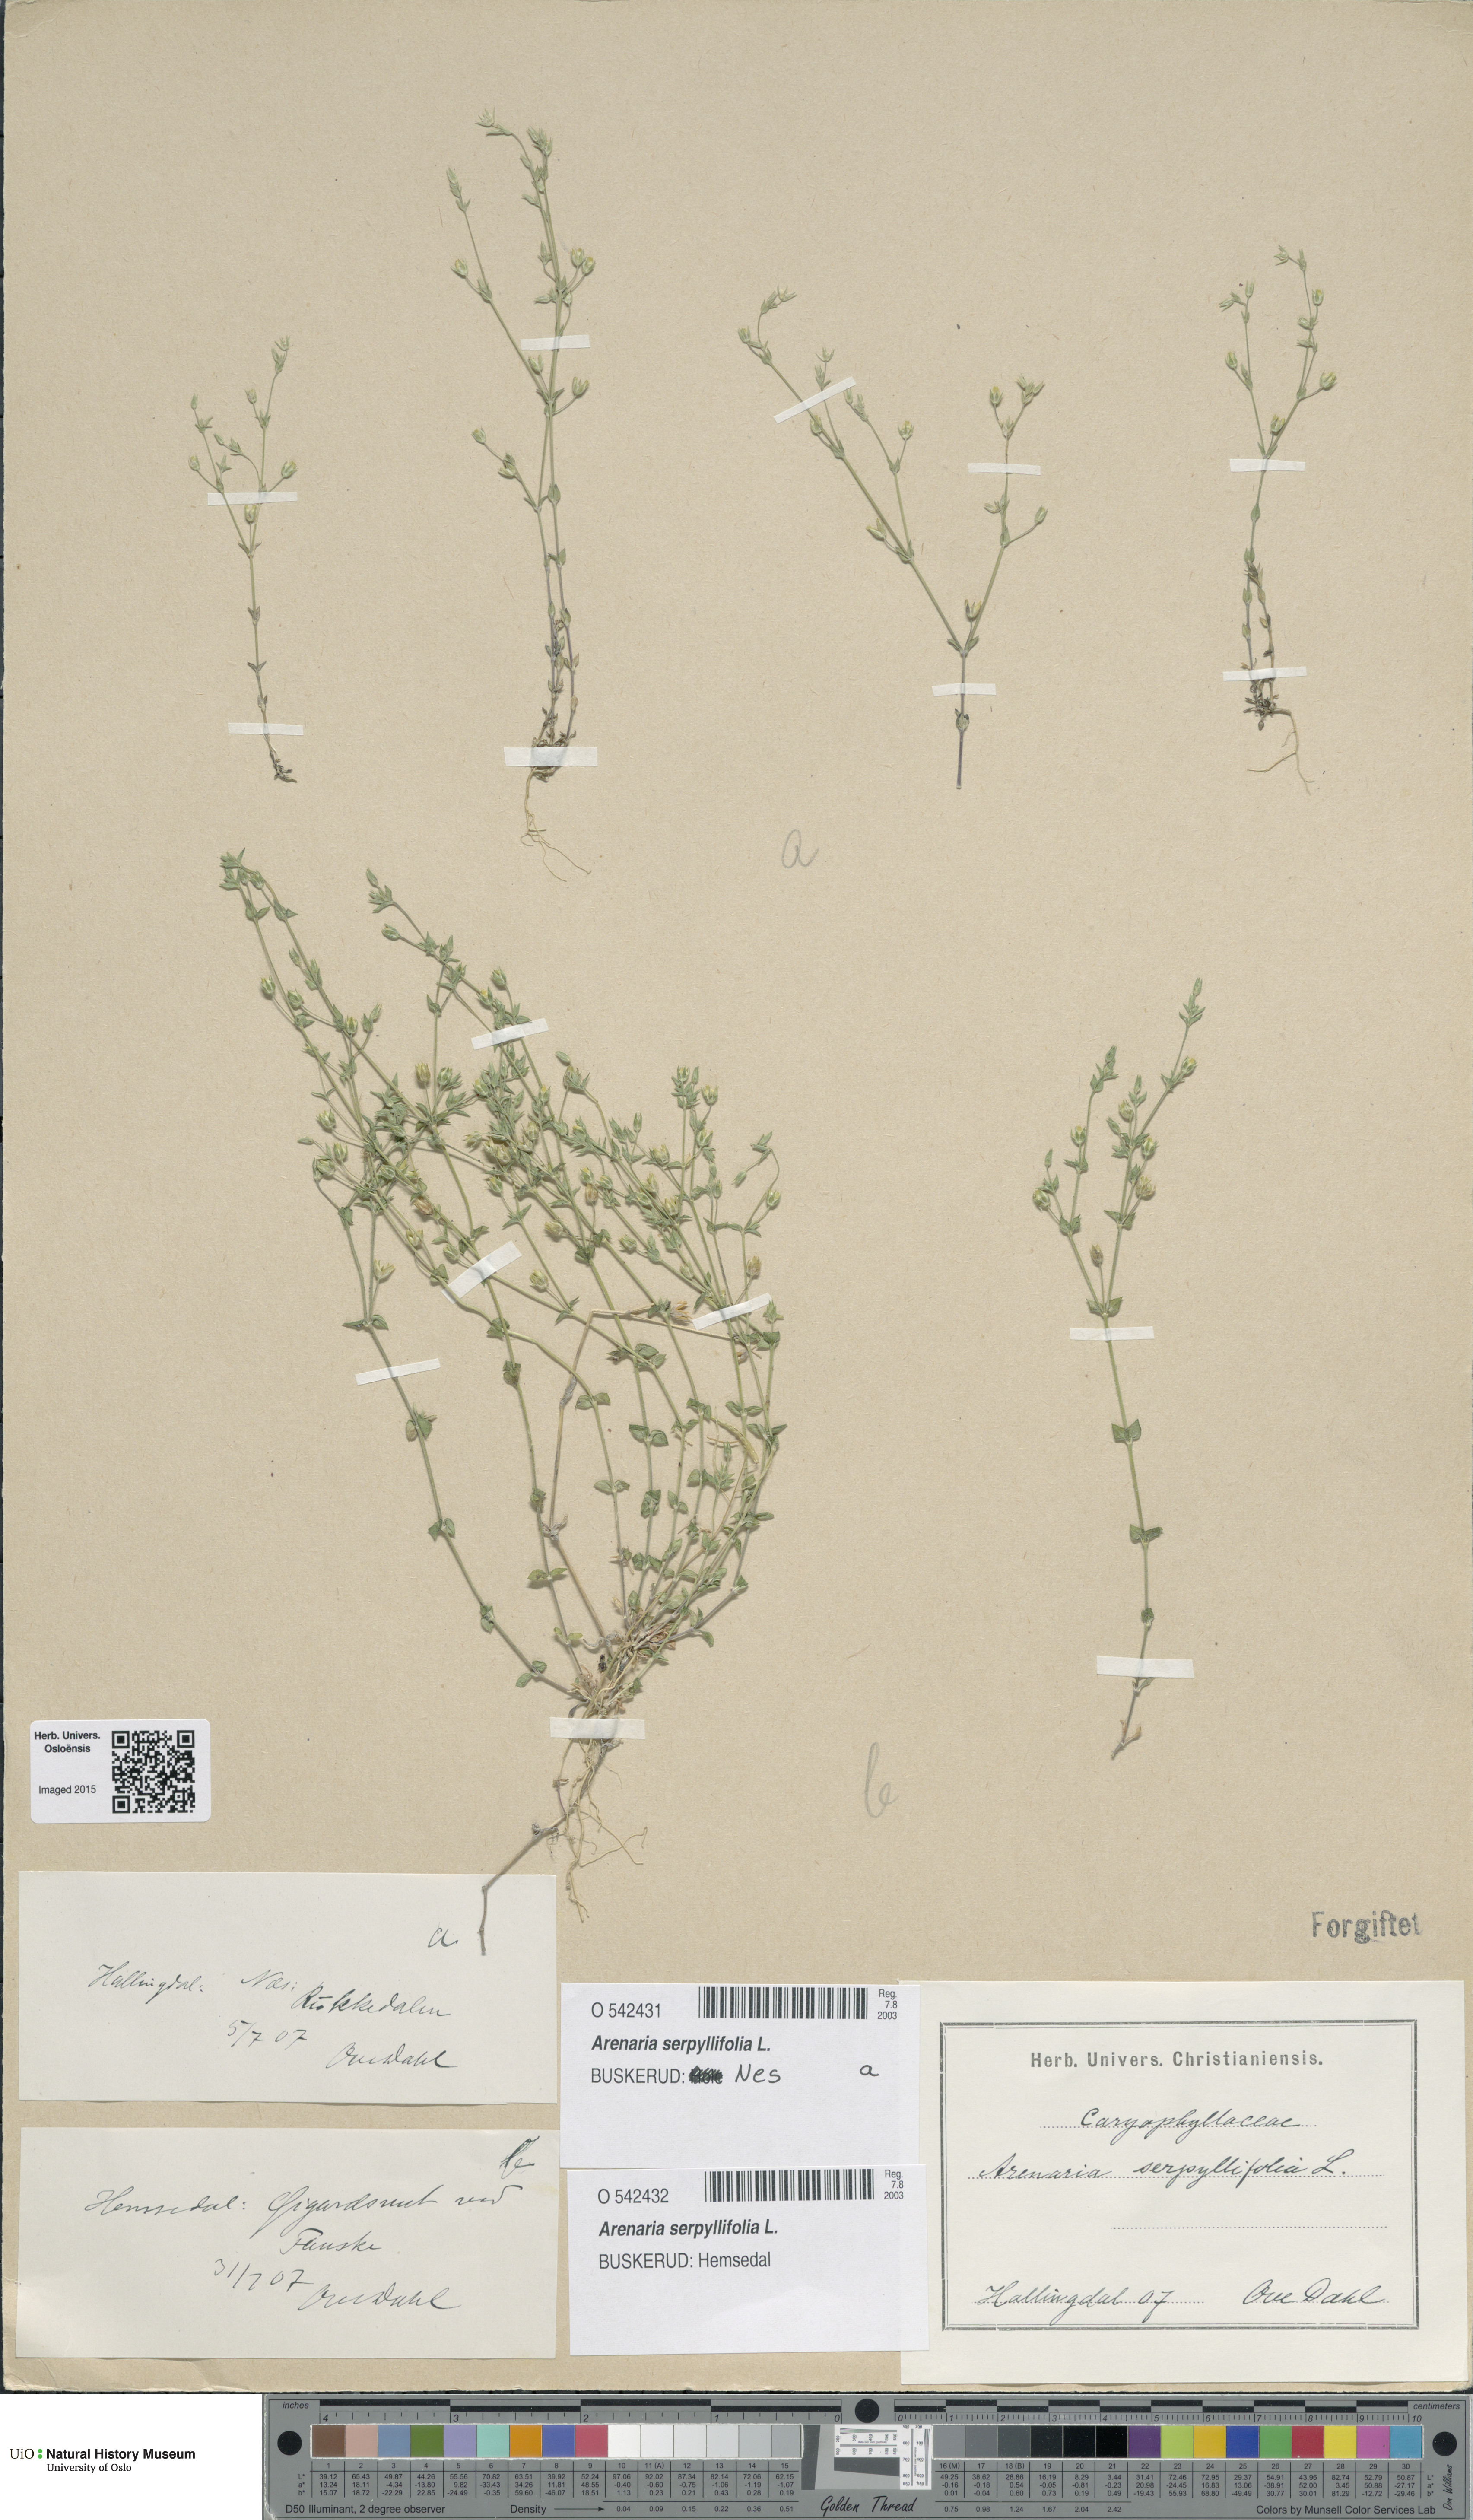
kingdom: Plantae
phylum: Tracheophyta
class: Magnoliopsida
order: Caryophyllales
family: Caryophyllaceae
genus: Arenaria
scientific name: Arenaria serpyllifolia
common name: Thyme-leaved sandwort
